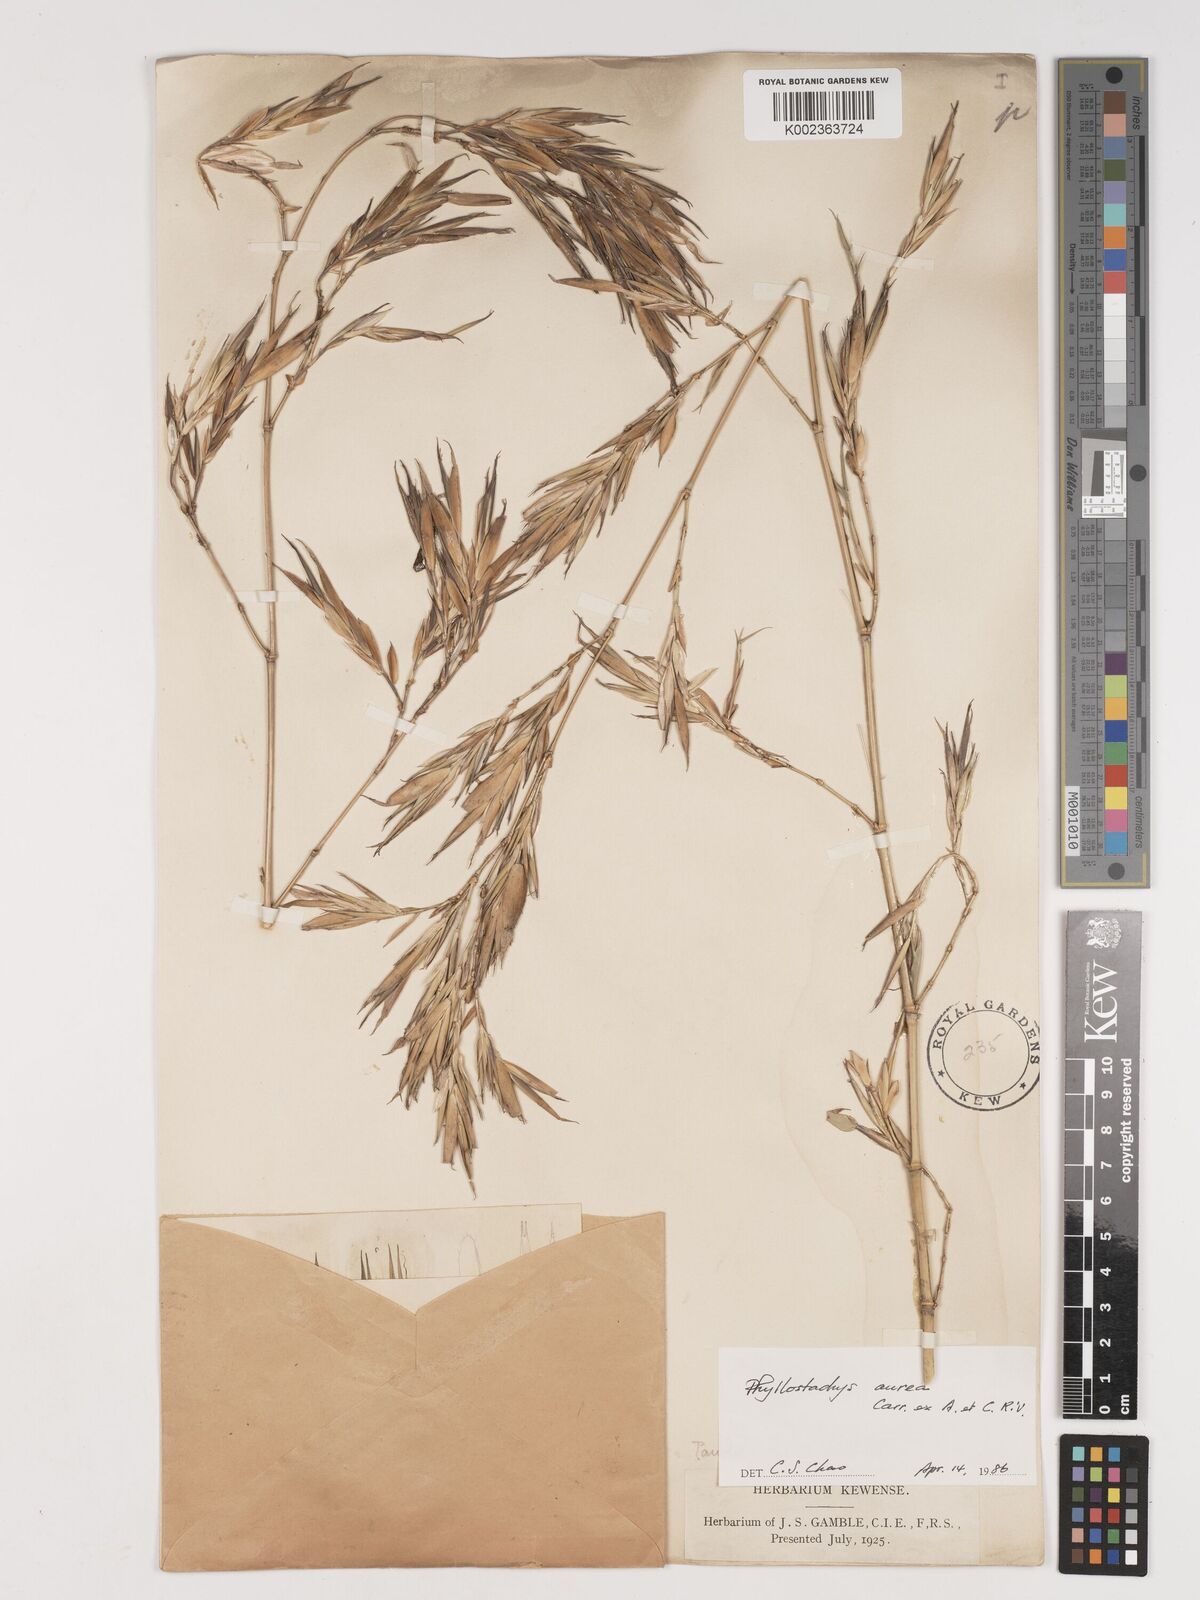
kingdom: Plantae
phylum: Tracheophyta
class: Liliopsida
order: Poales
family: Poaceae
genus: Phyllostachys
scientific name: Phyllostachys aurea
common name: Golden bamboo
